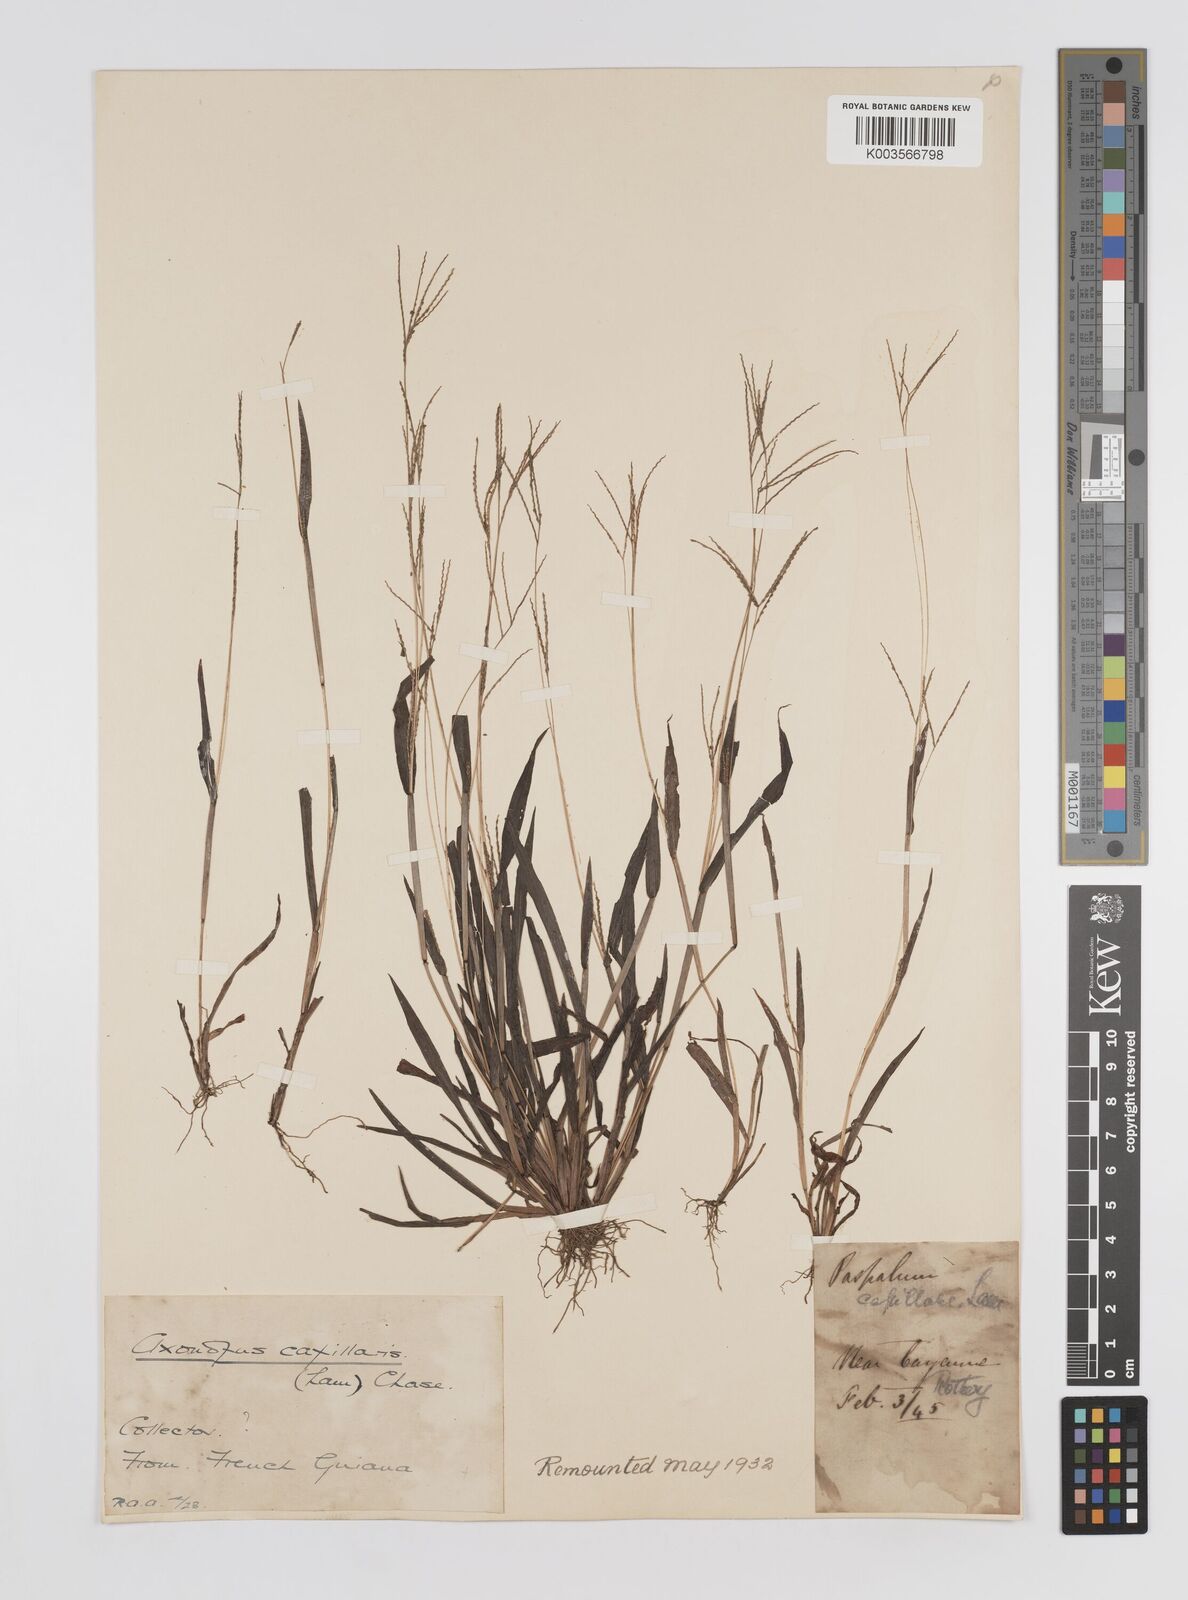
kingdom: Plantae
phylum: Tracheophyta
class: Liliopsida
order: Poales
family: Poaceae
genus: Axonopus
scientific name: Axonopus capillaris
